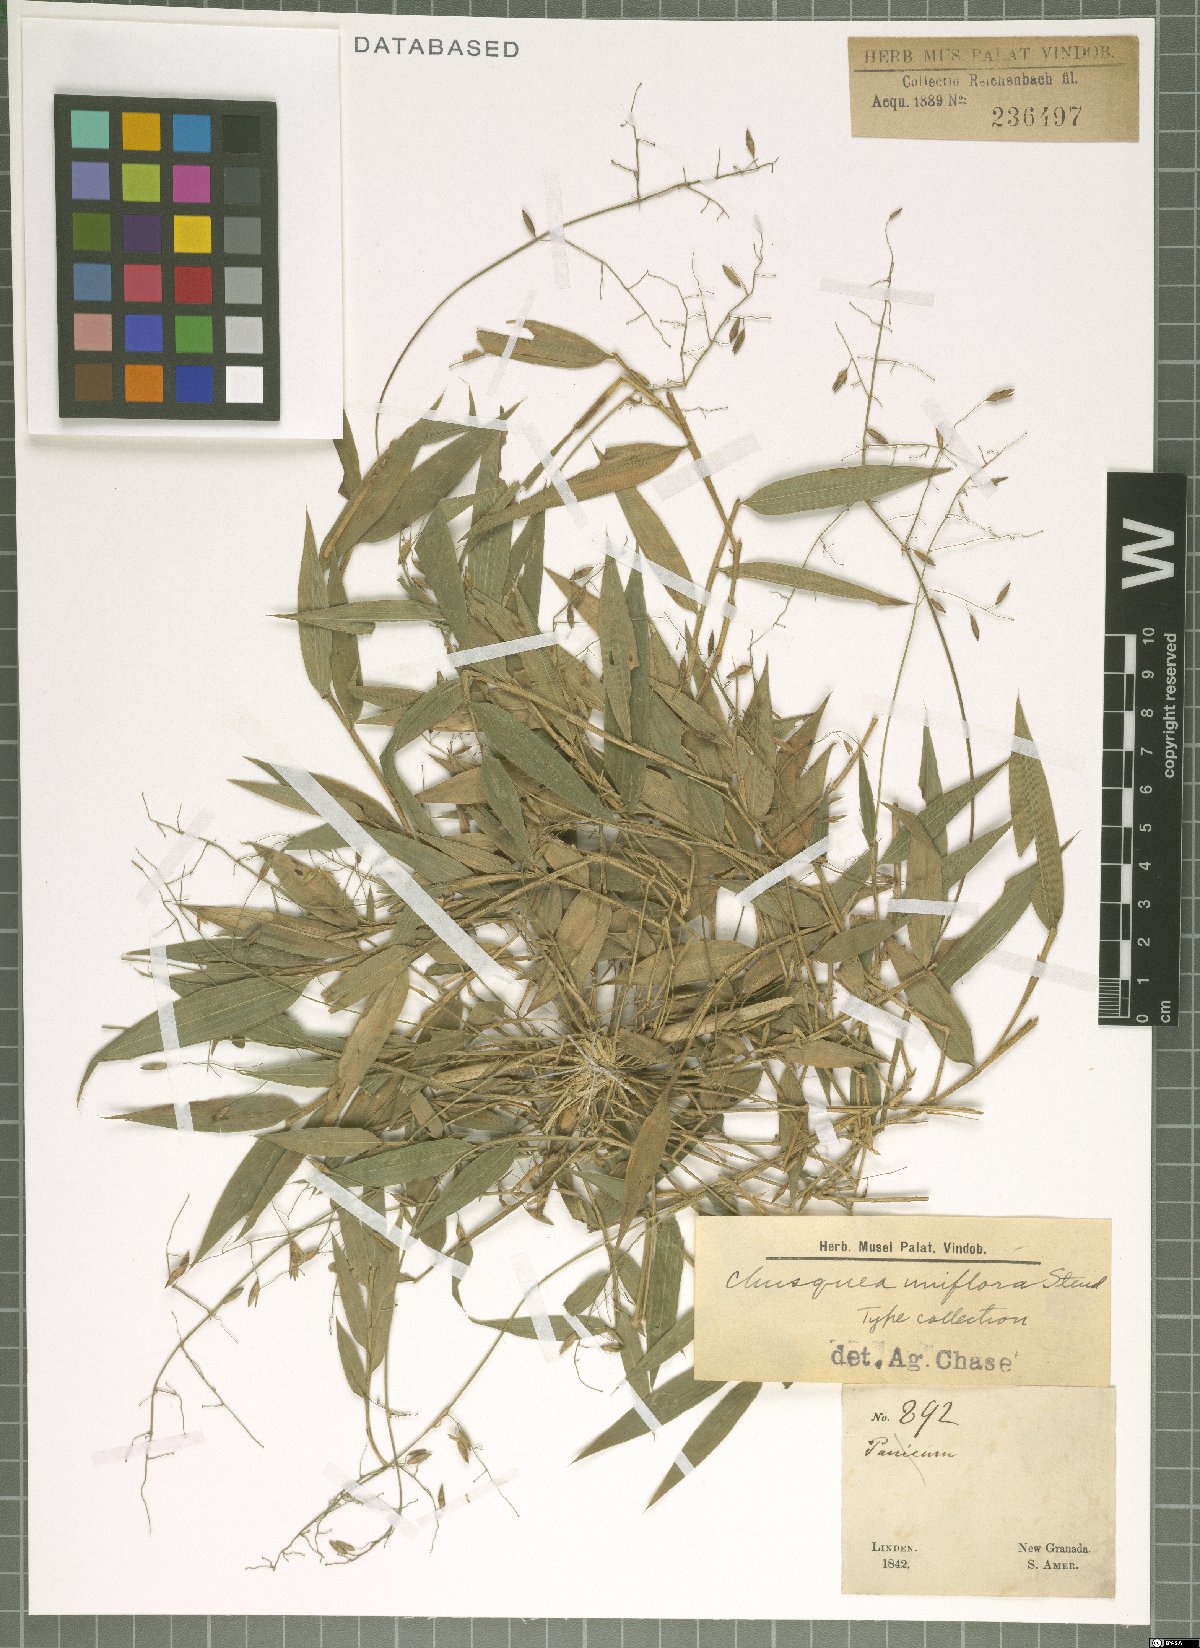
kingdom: Plantae
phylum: Tracheophyta
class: Liliopsida
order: Poales
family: Poaceae
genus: Chusquea
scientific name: Chusquea uniflora
